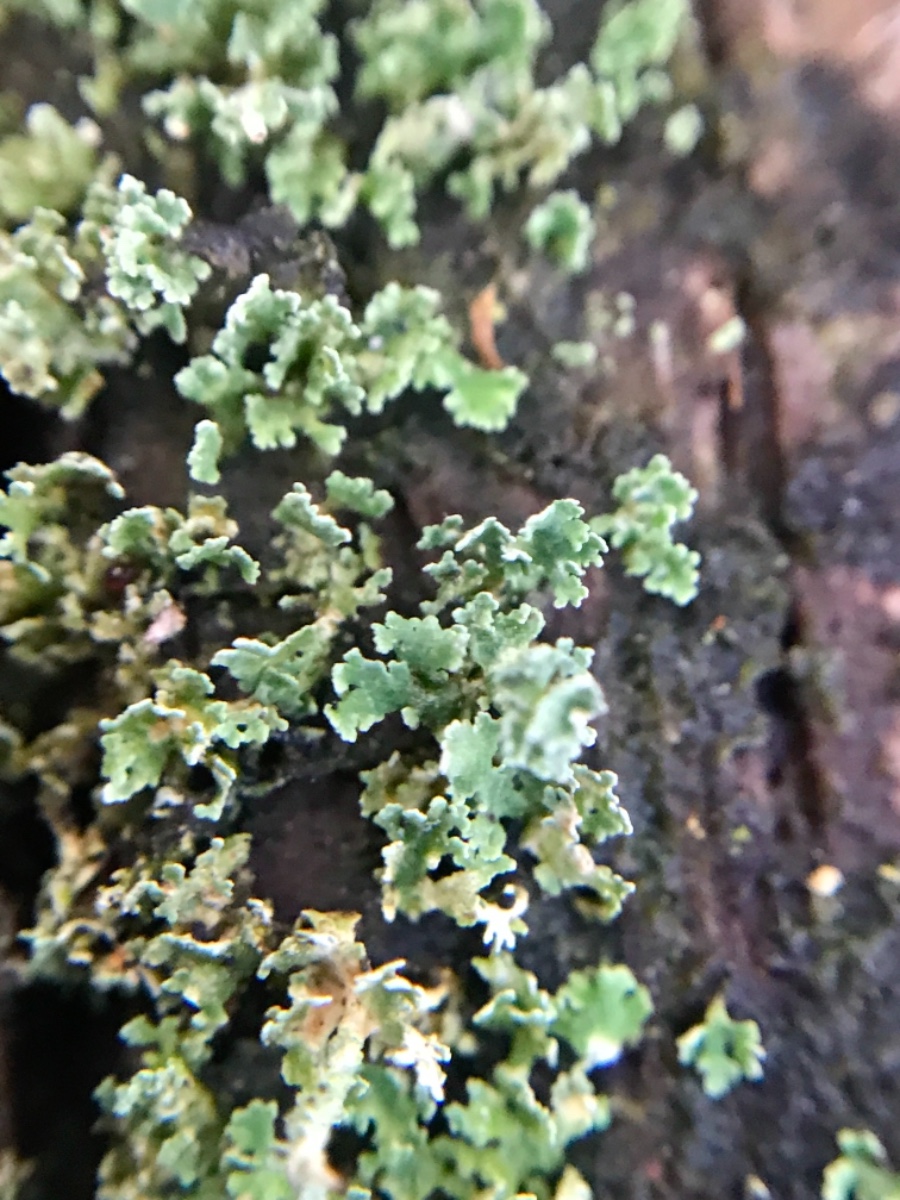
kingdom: Fungi
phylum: Ascomycota
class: Lecanoromycetes
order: Lecanorales
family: Cladoniaceae
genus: Cladonia
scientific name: Cladonia
